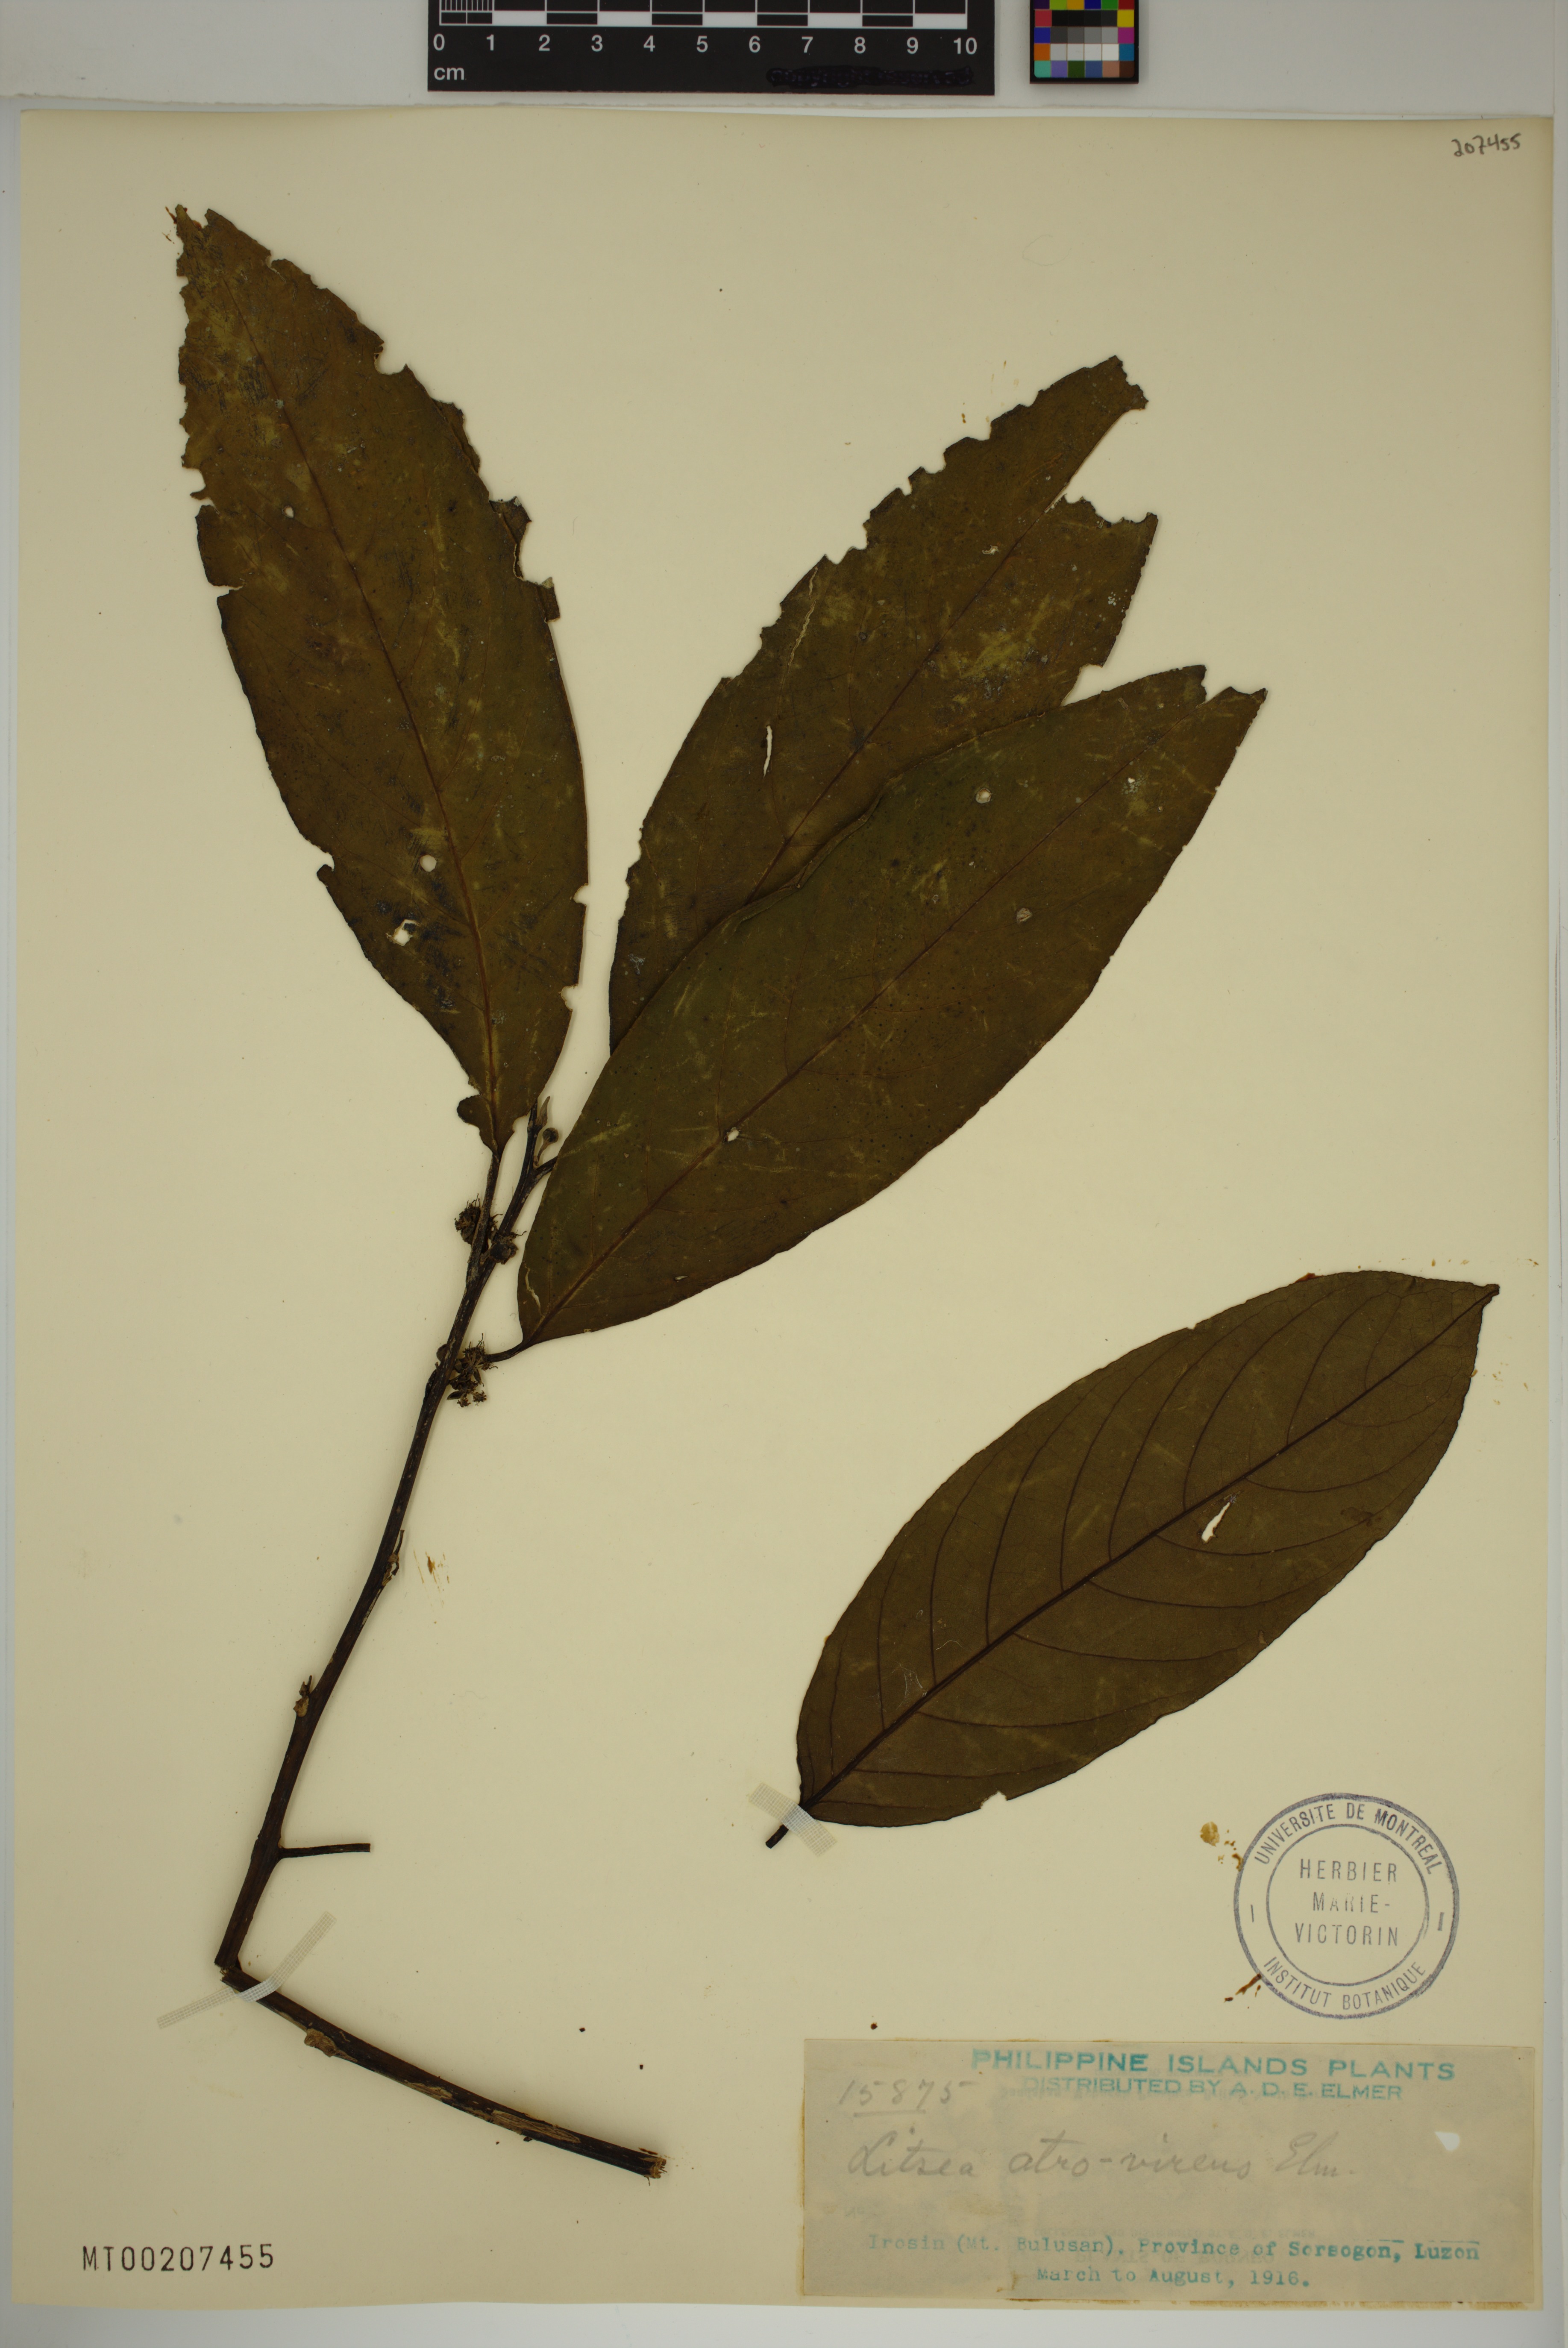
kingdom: Plantae
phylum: Tracheophyta
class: Magnoliopsida
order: Laurales
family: Lauraceae
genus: Litsea
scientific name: Litsea
